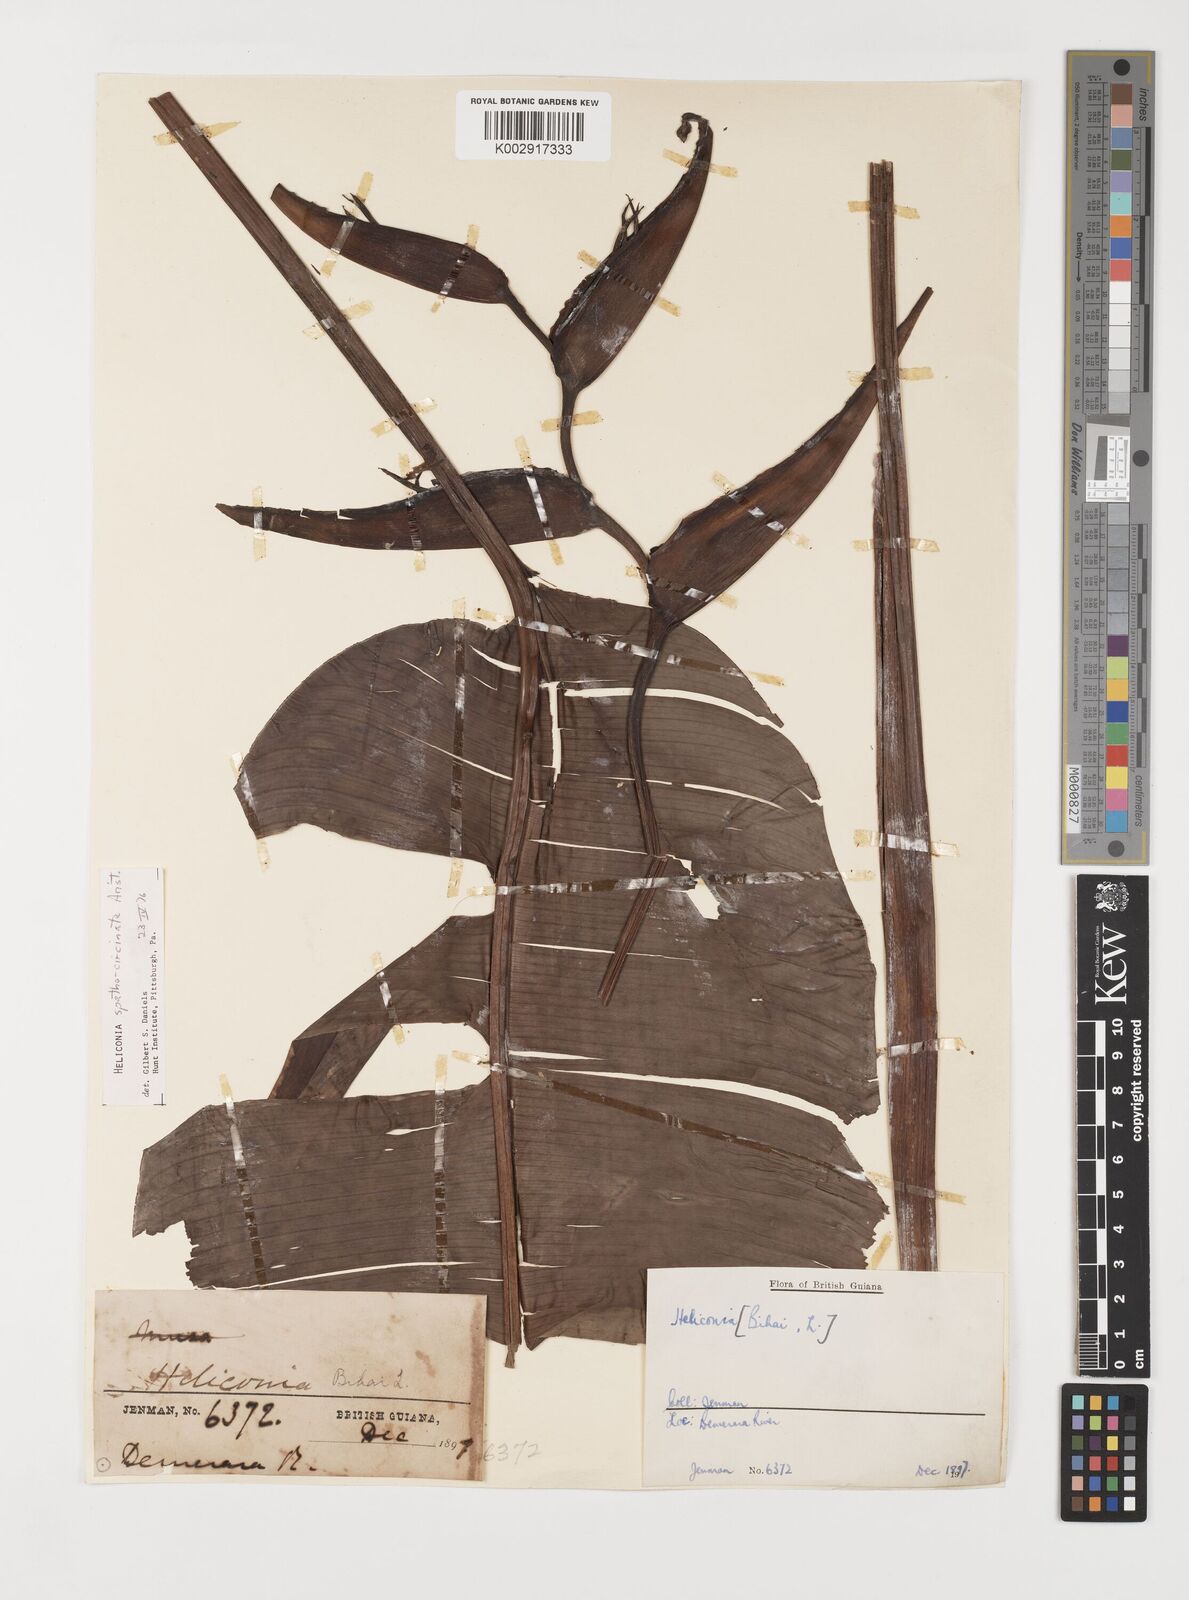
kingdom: Plantae
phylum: Tracheophyta
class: Liliopsida
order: Zingiberales
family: Heliconiaceae
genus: Heliconia
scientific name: Heliconia spathocircinata
